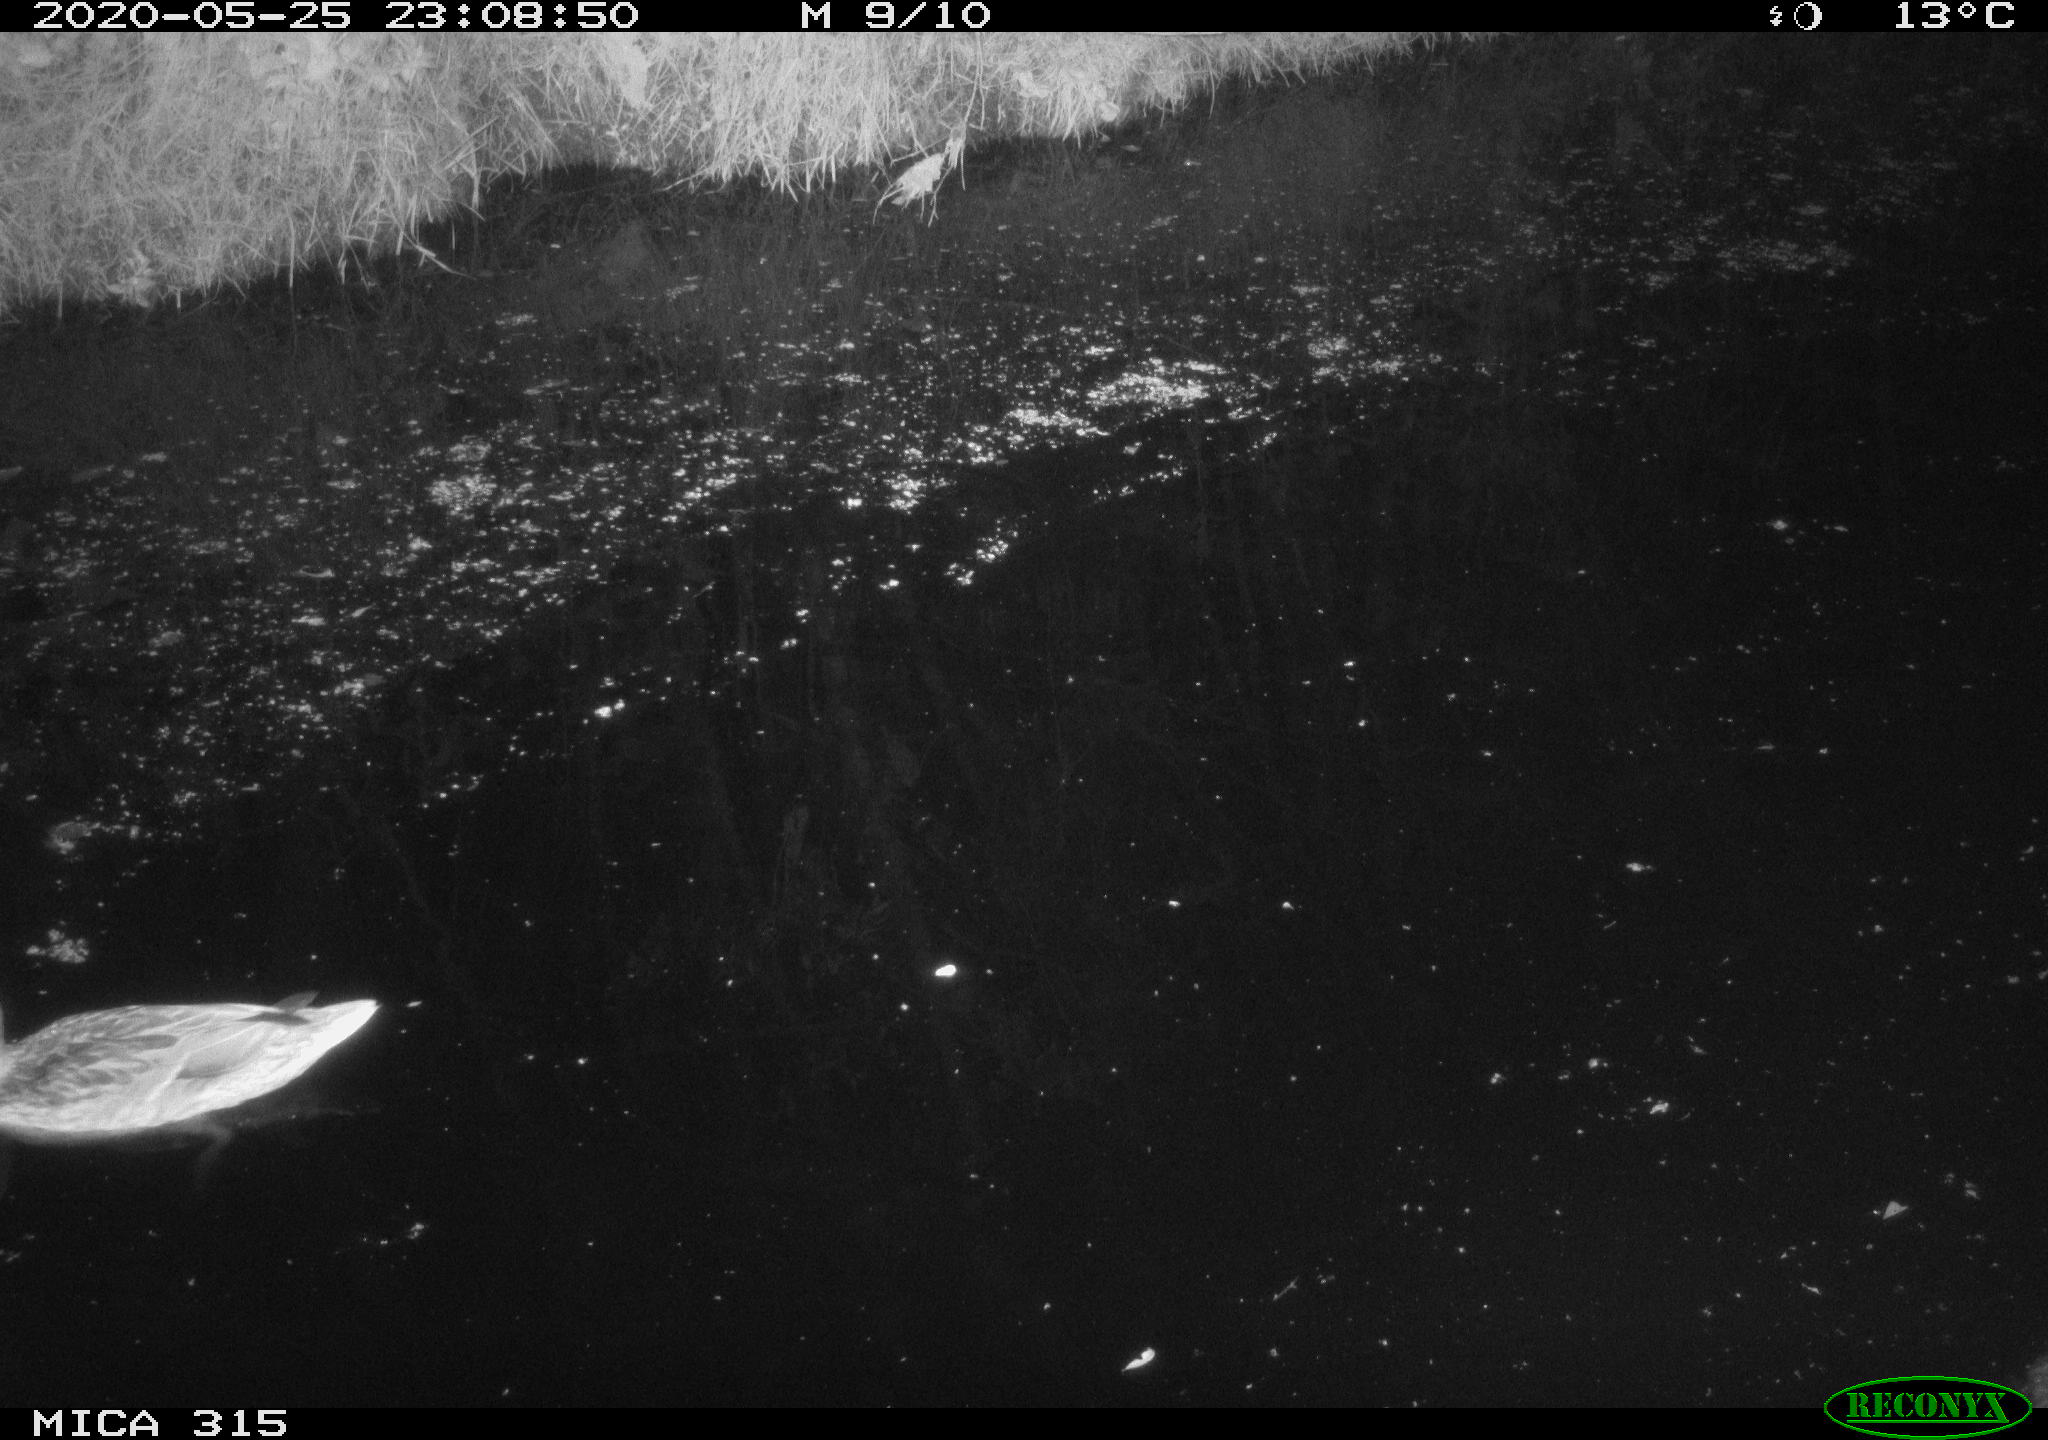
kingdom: Animalia
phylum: Chordata
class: Aves
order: Anseriformes
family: Anatidae
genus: Anas
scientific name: Anas platyrhynchos
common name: Mallard
